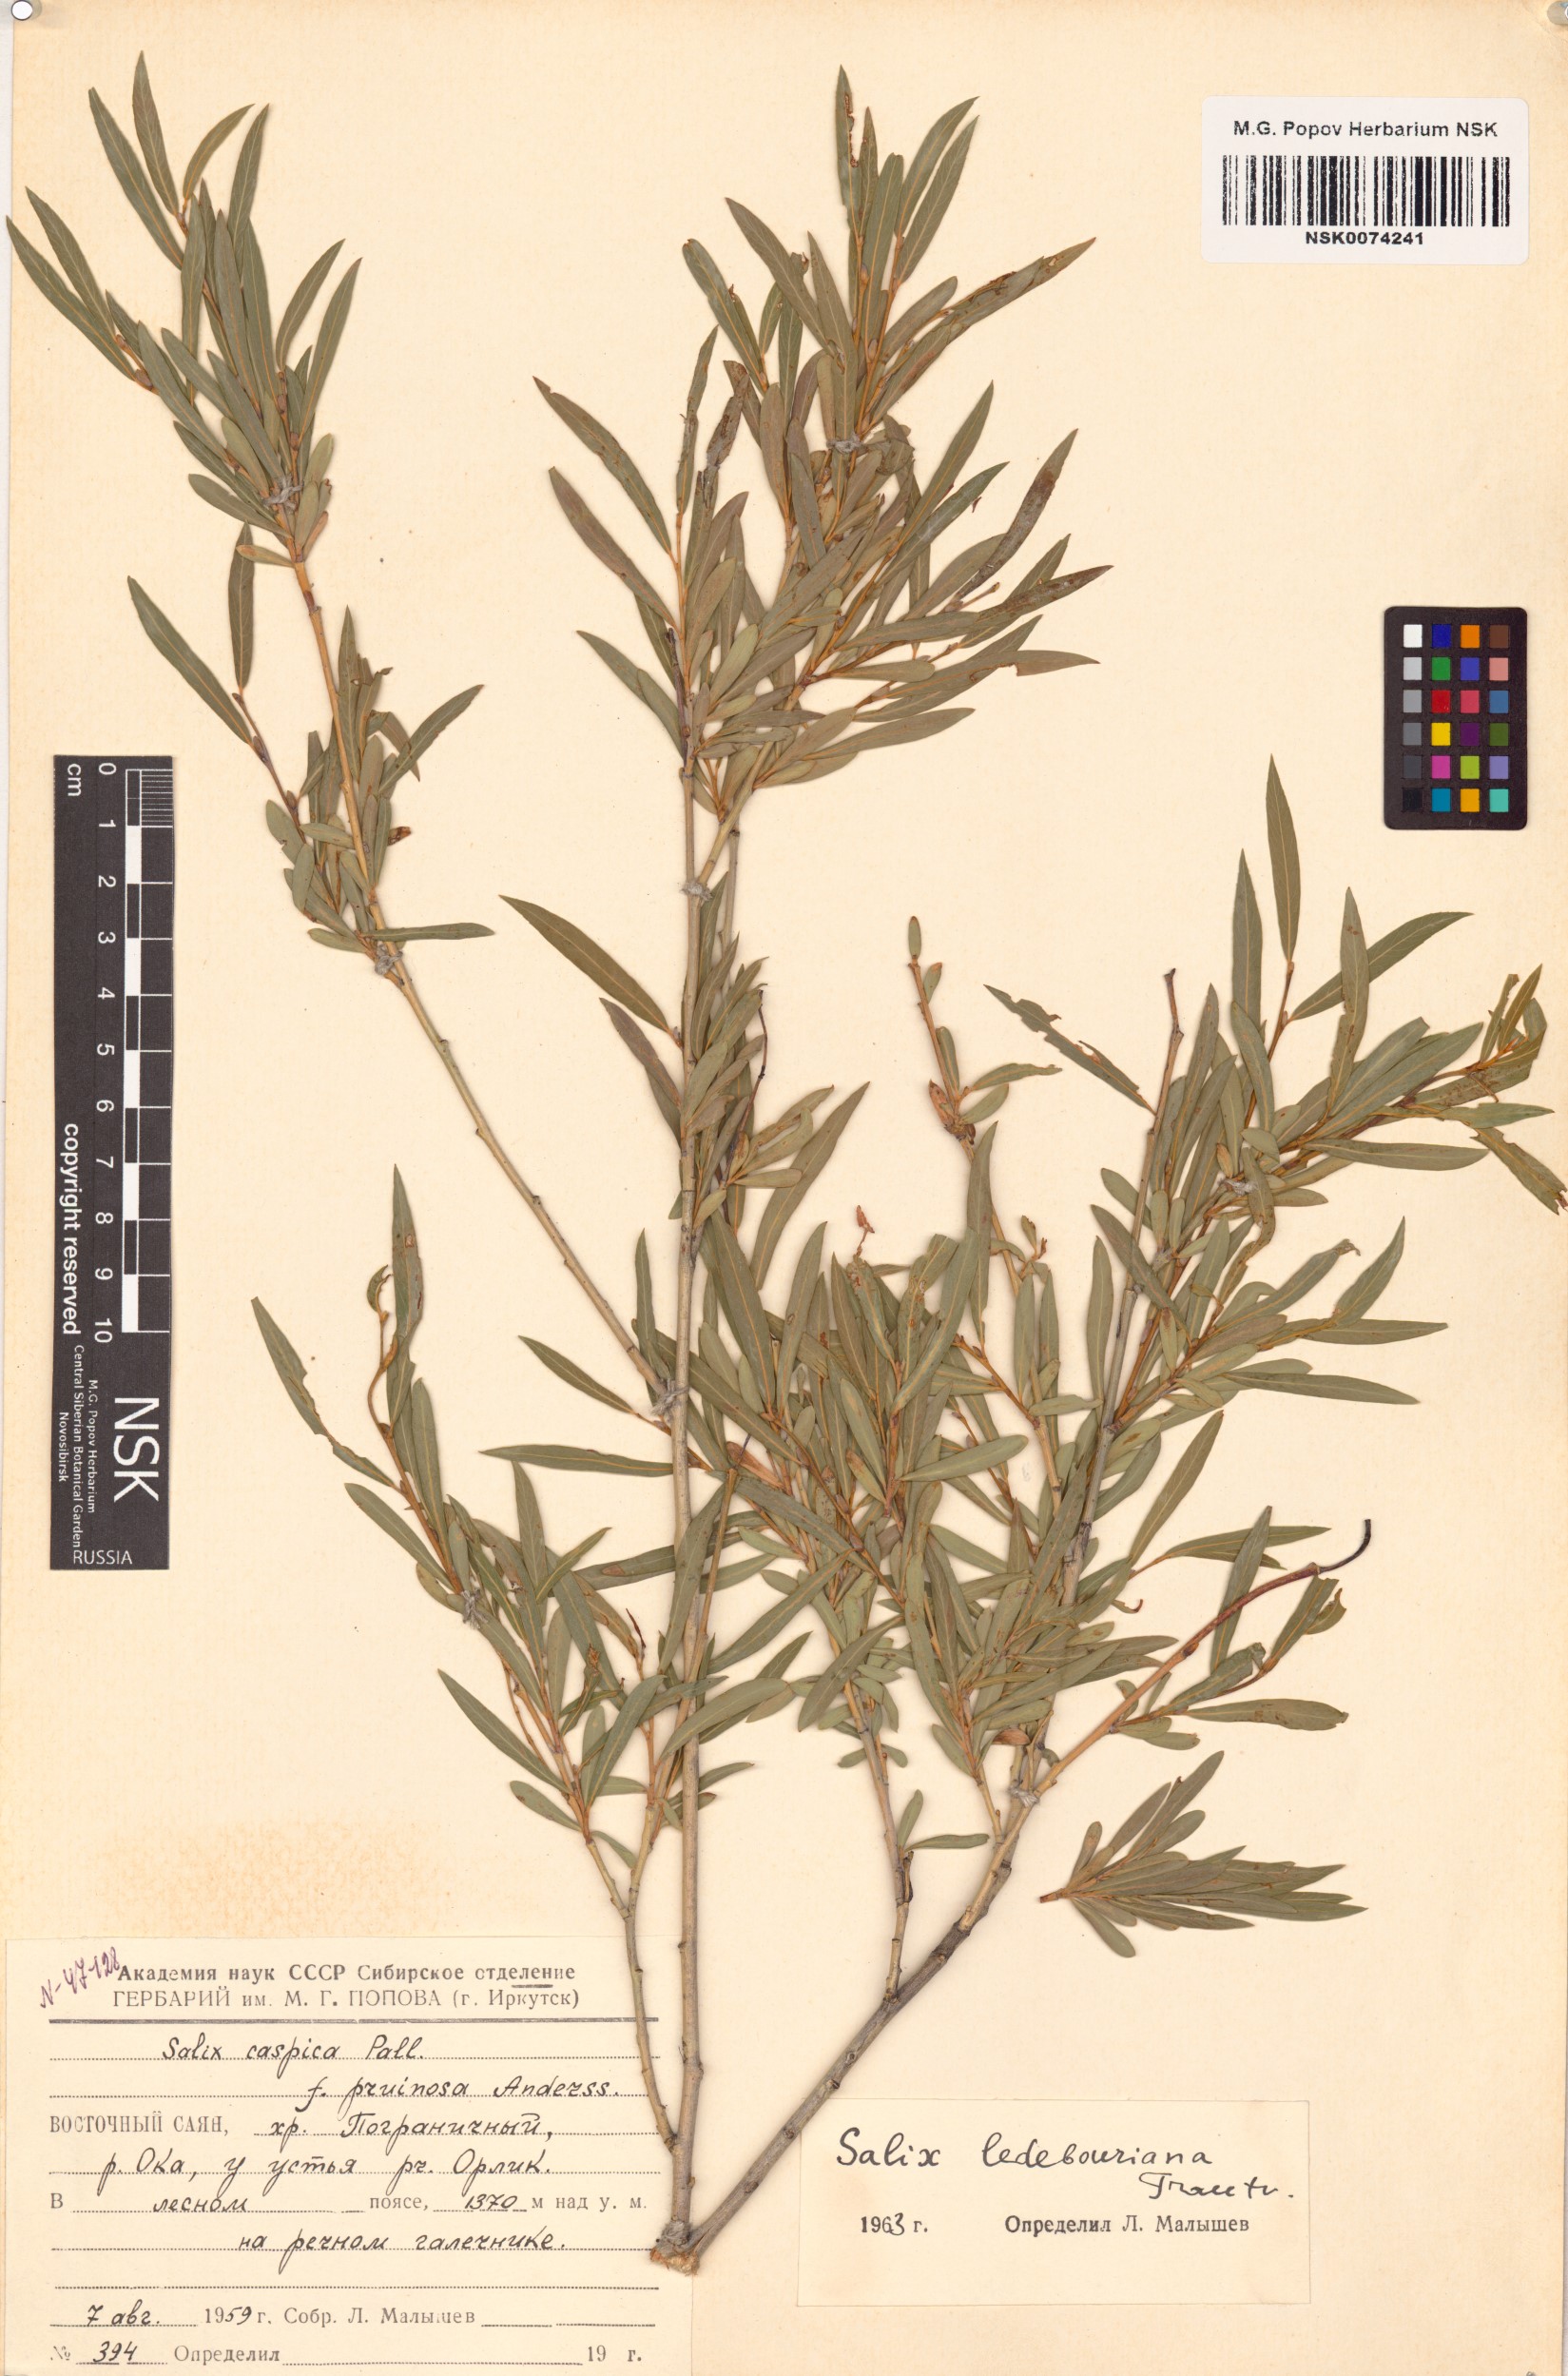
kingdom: Plantae
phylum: Tracheophyta
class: Magnoliopsida
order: Malpighiales
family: Salicaceae
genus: Salix
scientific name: Salix ledebouriana
